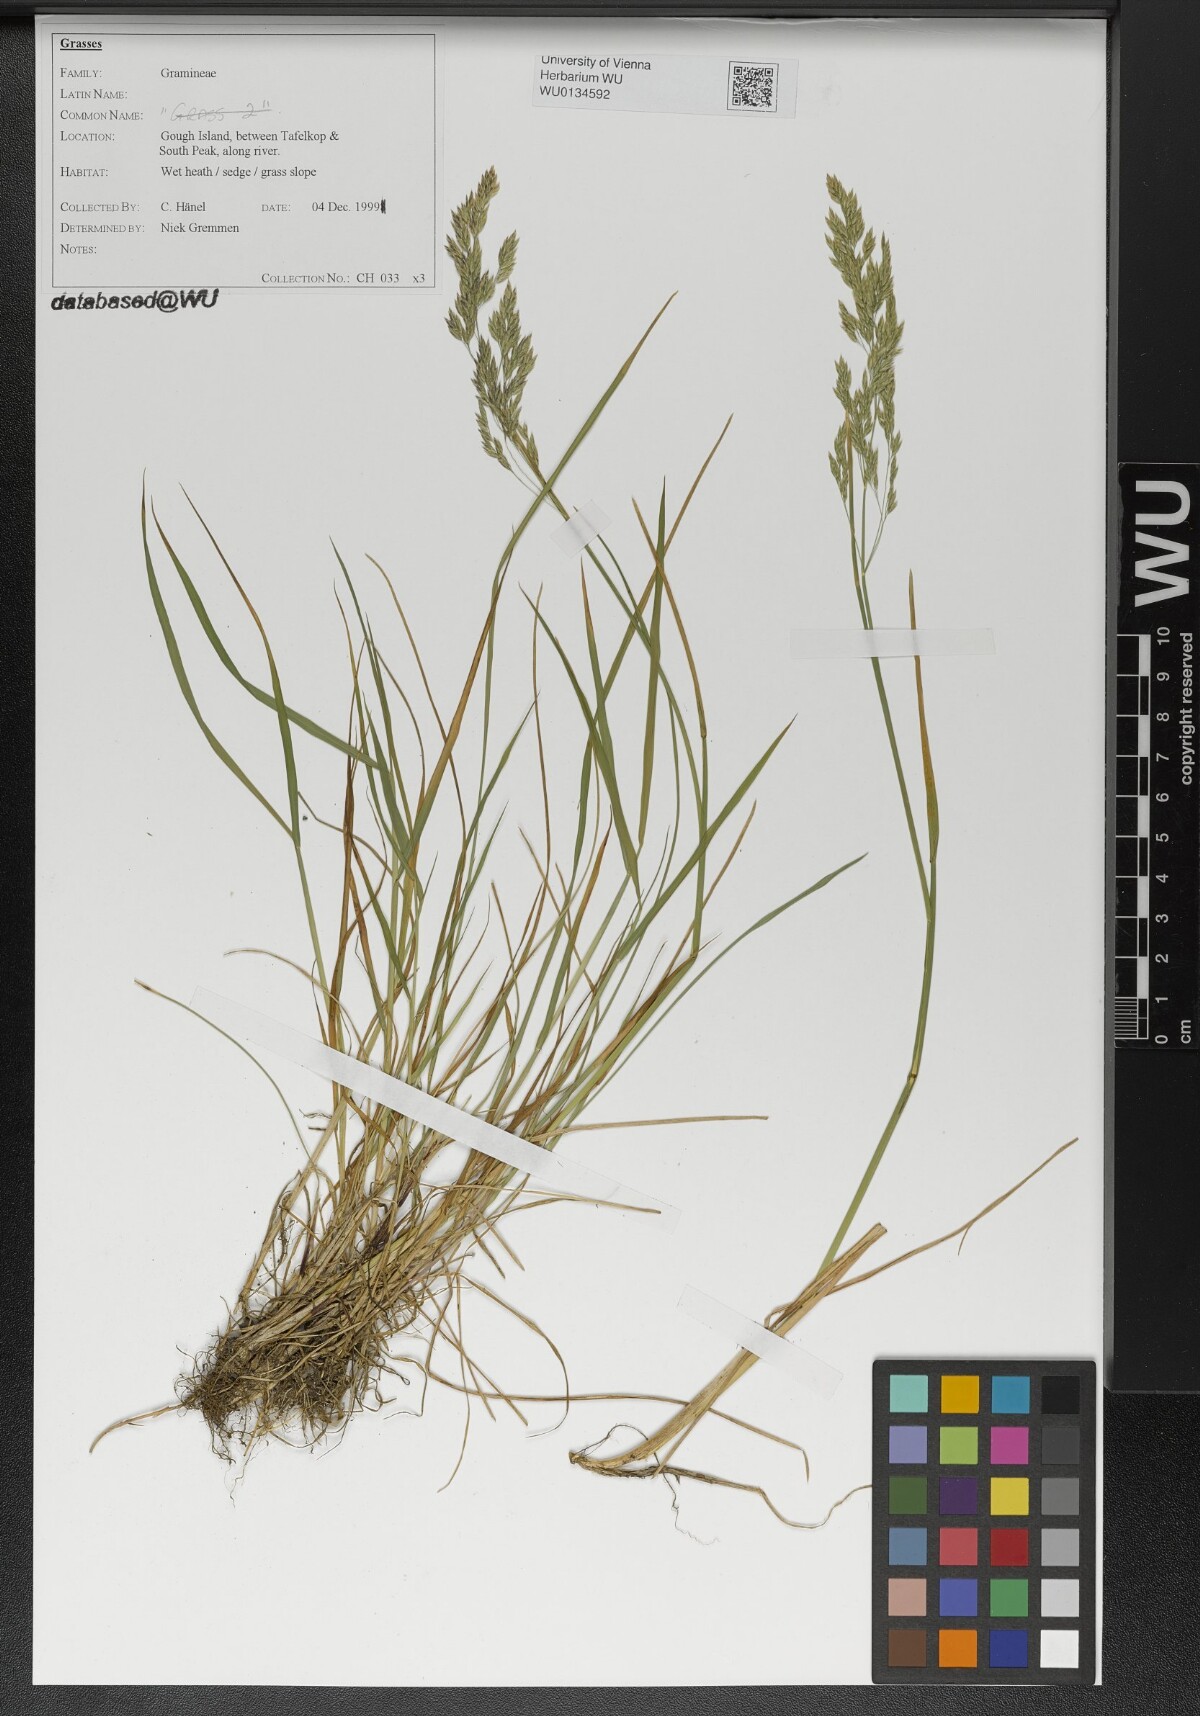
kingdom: Plantae
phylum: Tracheophyta
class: Liliopsida
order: Poales
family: Poaceae
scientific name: Poaceae
